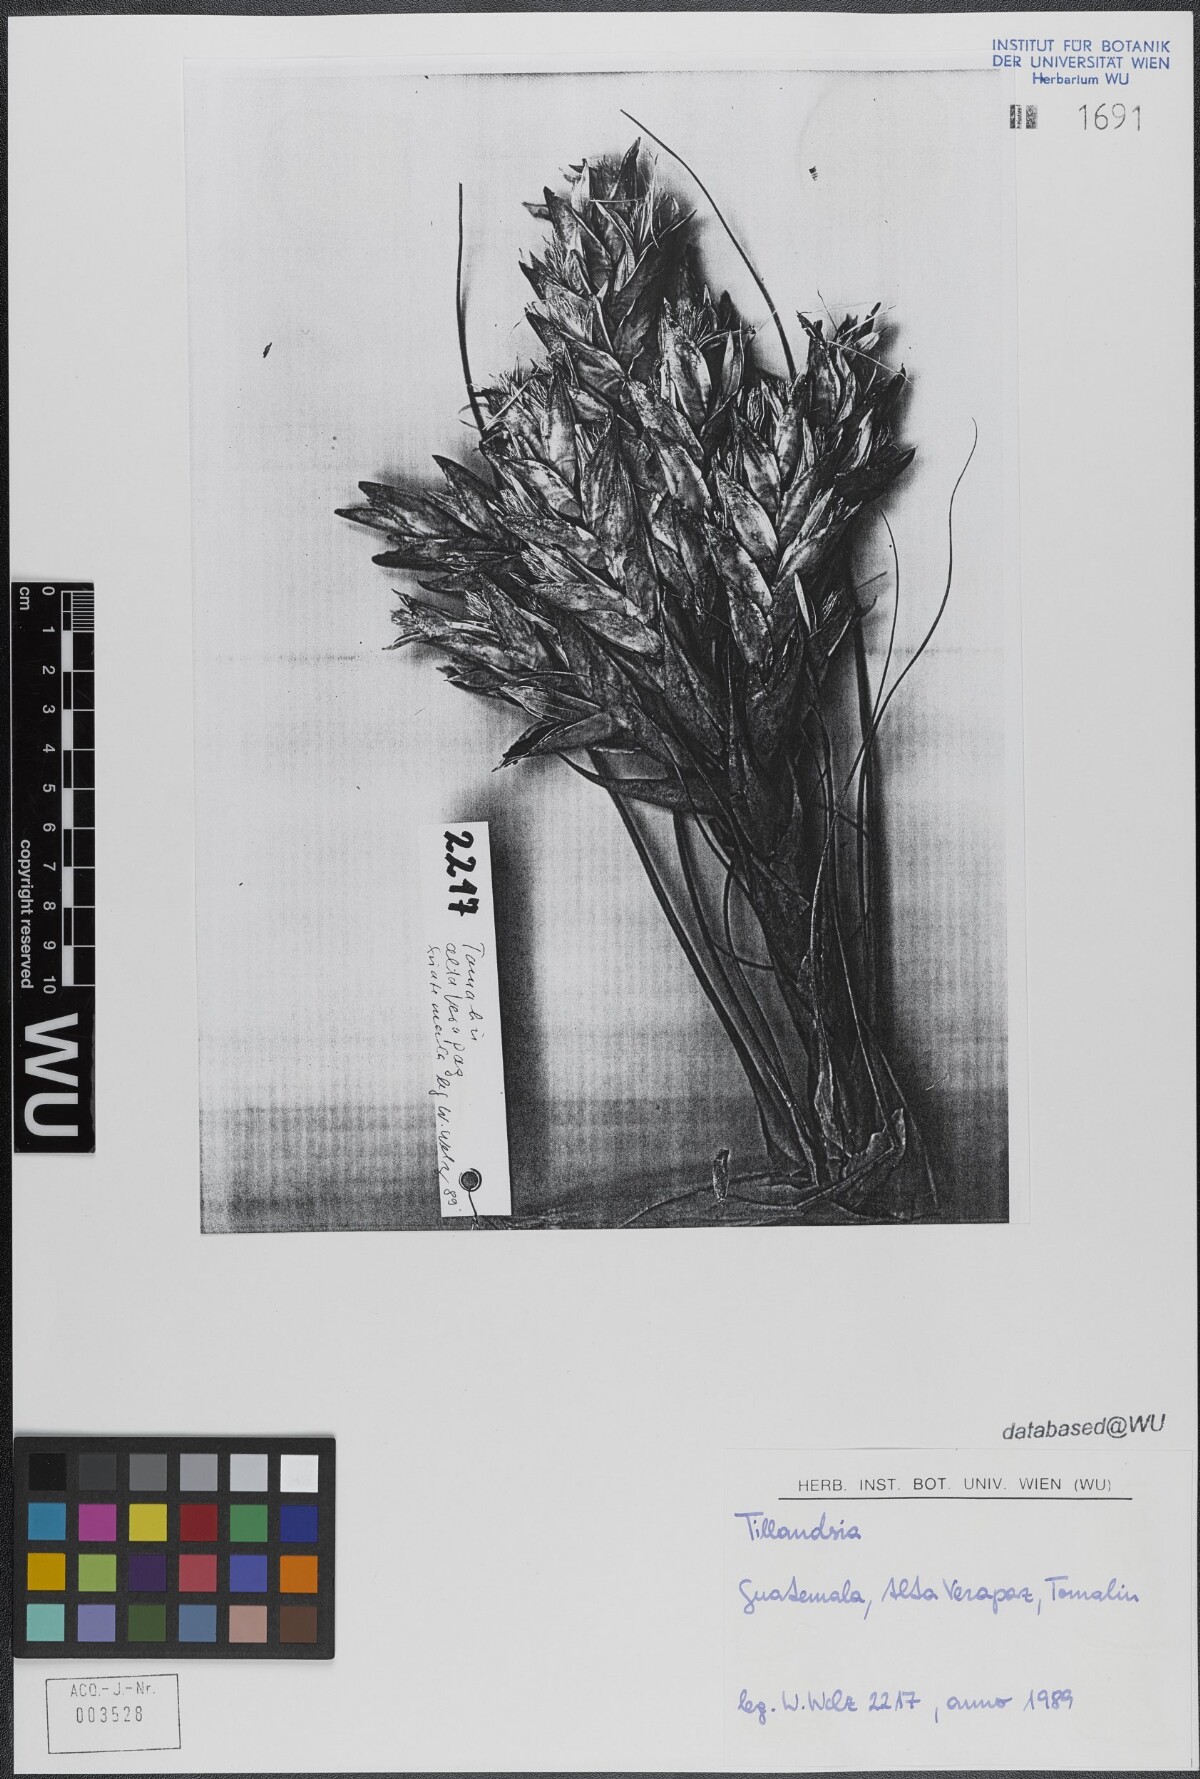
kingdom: Plantae
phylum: Tracheophyta
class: Liliopsida
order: Poales
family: Bromeliaceae
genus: Tillandsia
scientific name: Tillandsia fasciculata
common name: Giant airplant
